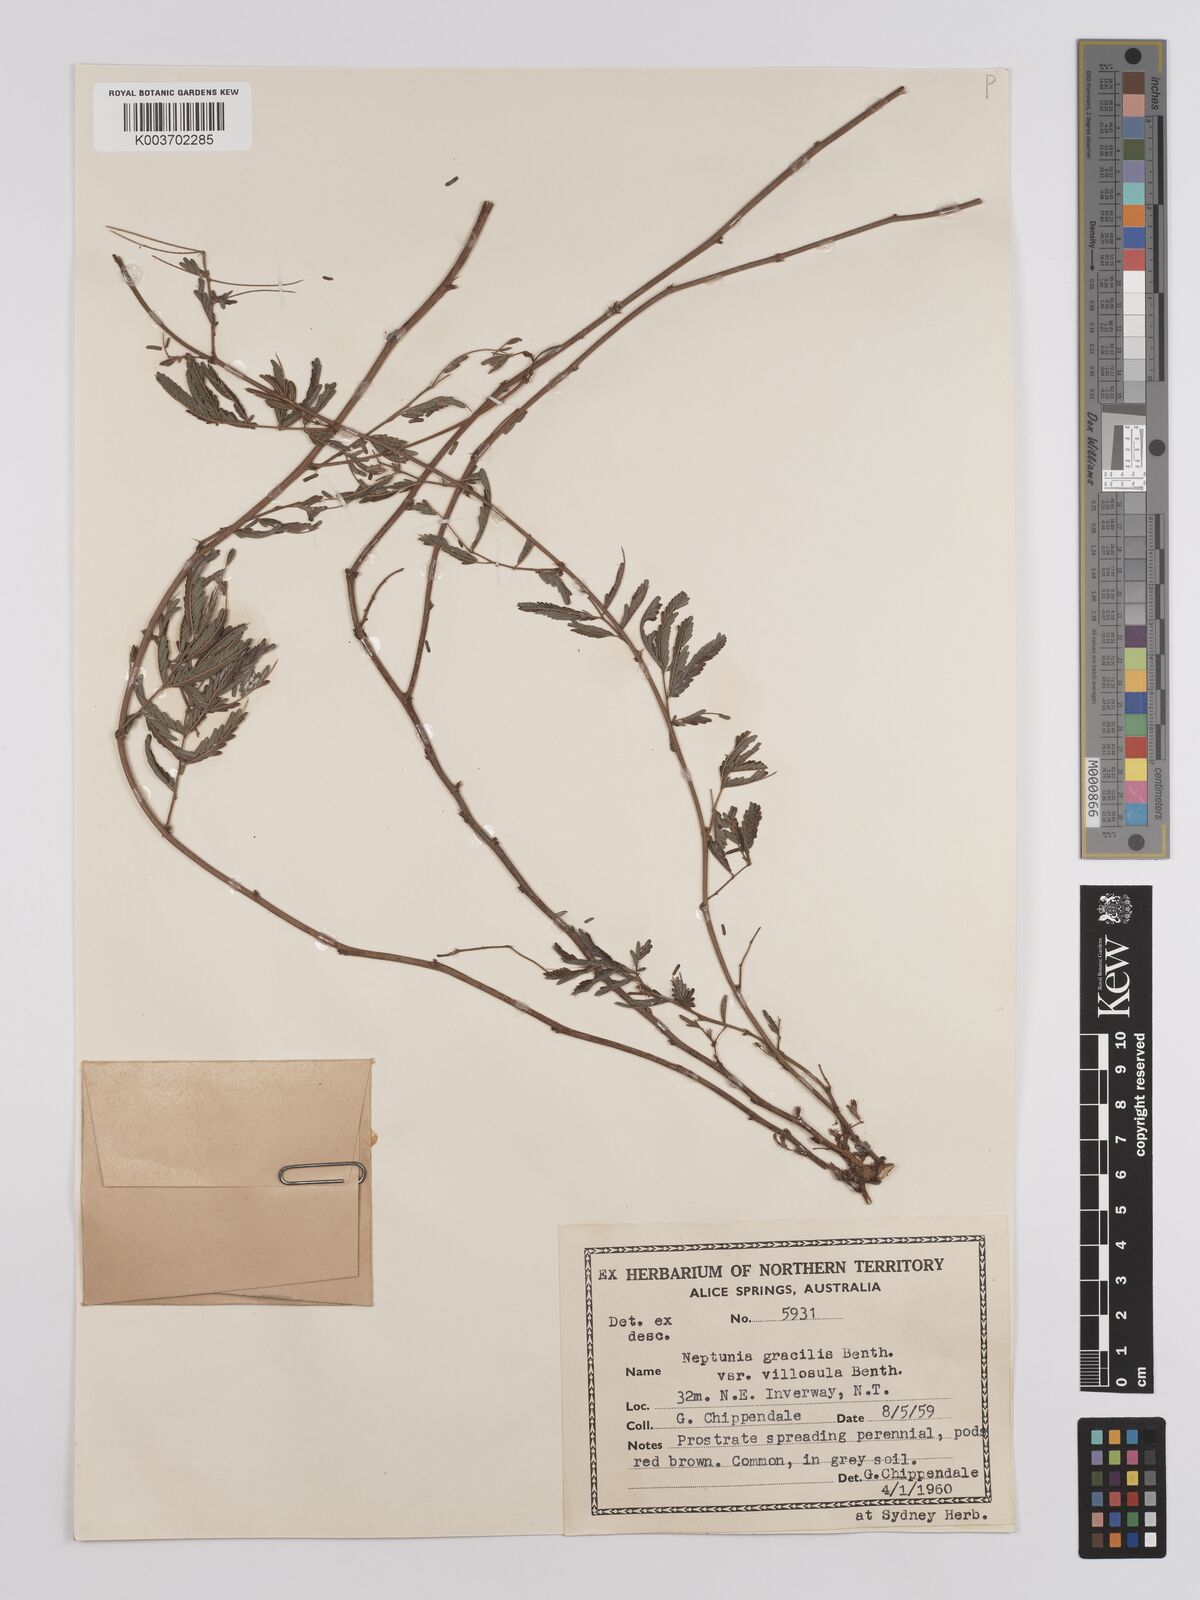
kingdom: Plantae
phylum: Tracheophyta
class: Magnoliopsida
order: Fabales
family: Fabaceae
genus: Neptunia
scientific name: Neptunia gracilis
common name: Sensitive-plant
